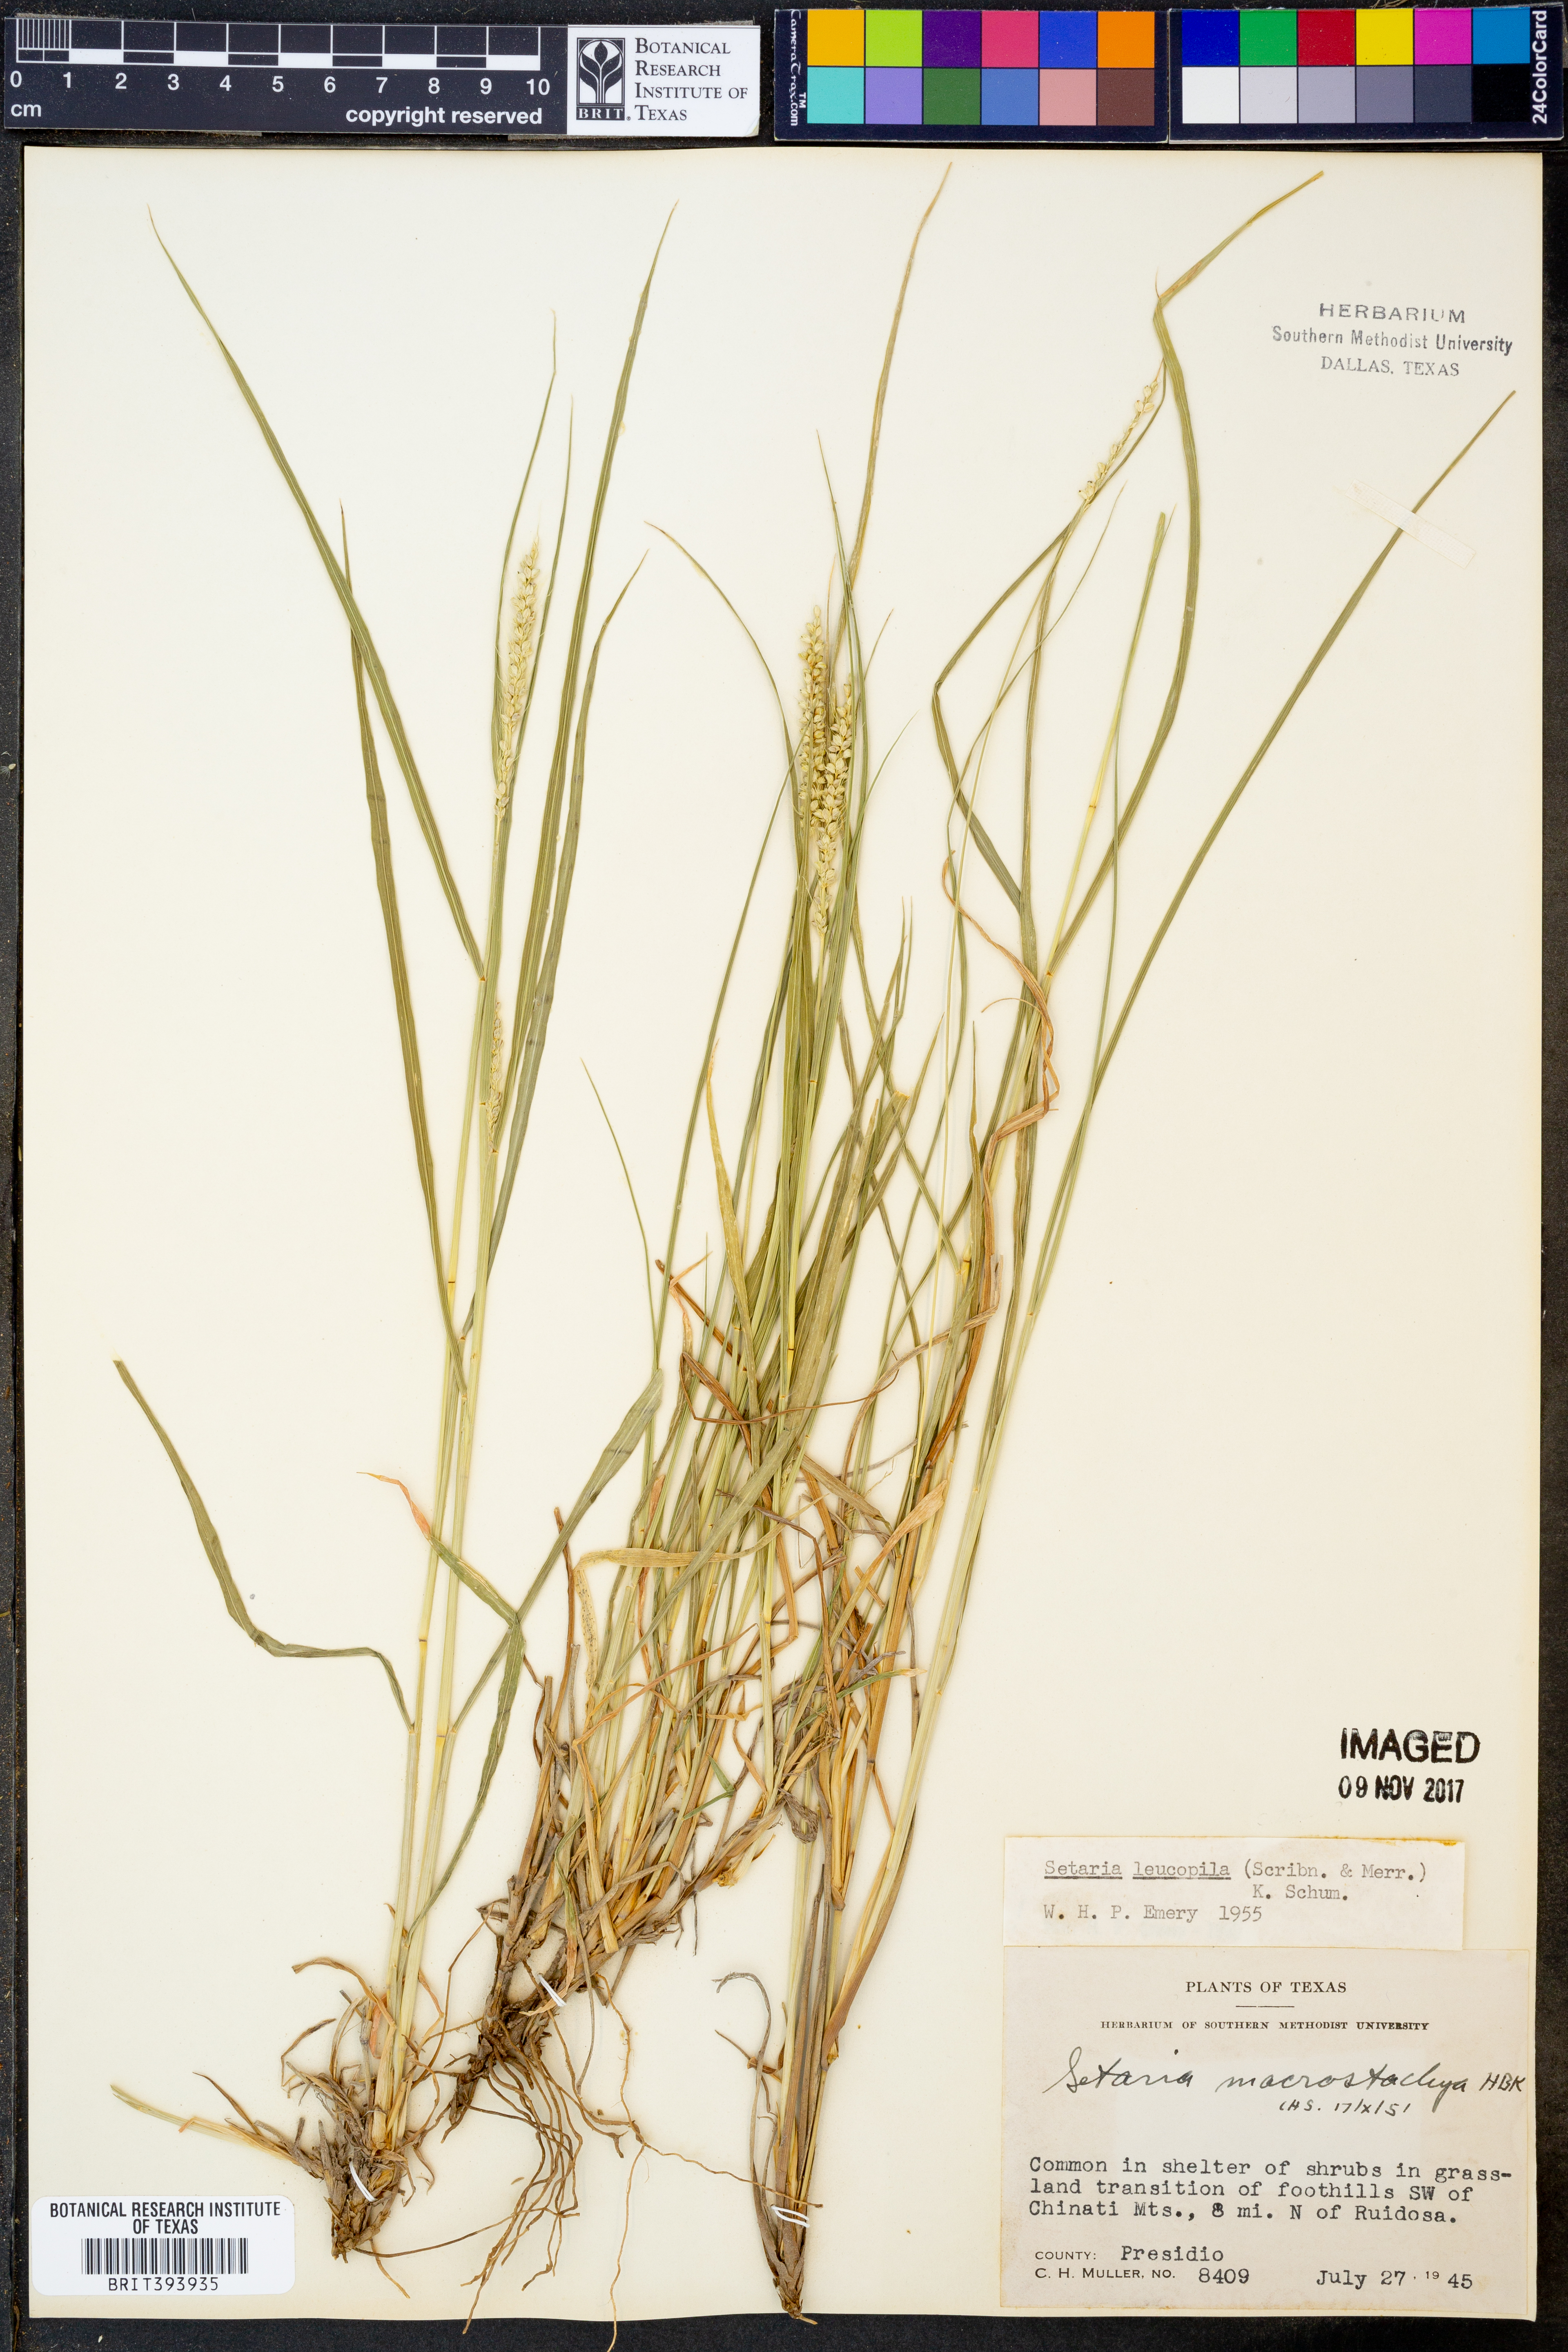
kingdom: Plantae
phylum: Tracheophyta
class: Liliopsida
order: Poales
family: Poaceae
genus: Setaria
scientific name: Setaria leucopila
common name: Plains bristle grass
